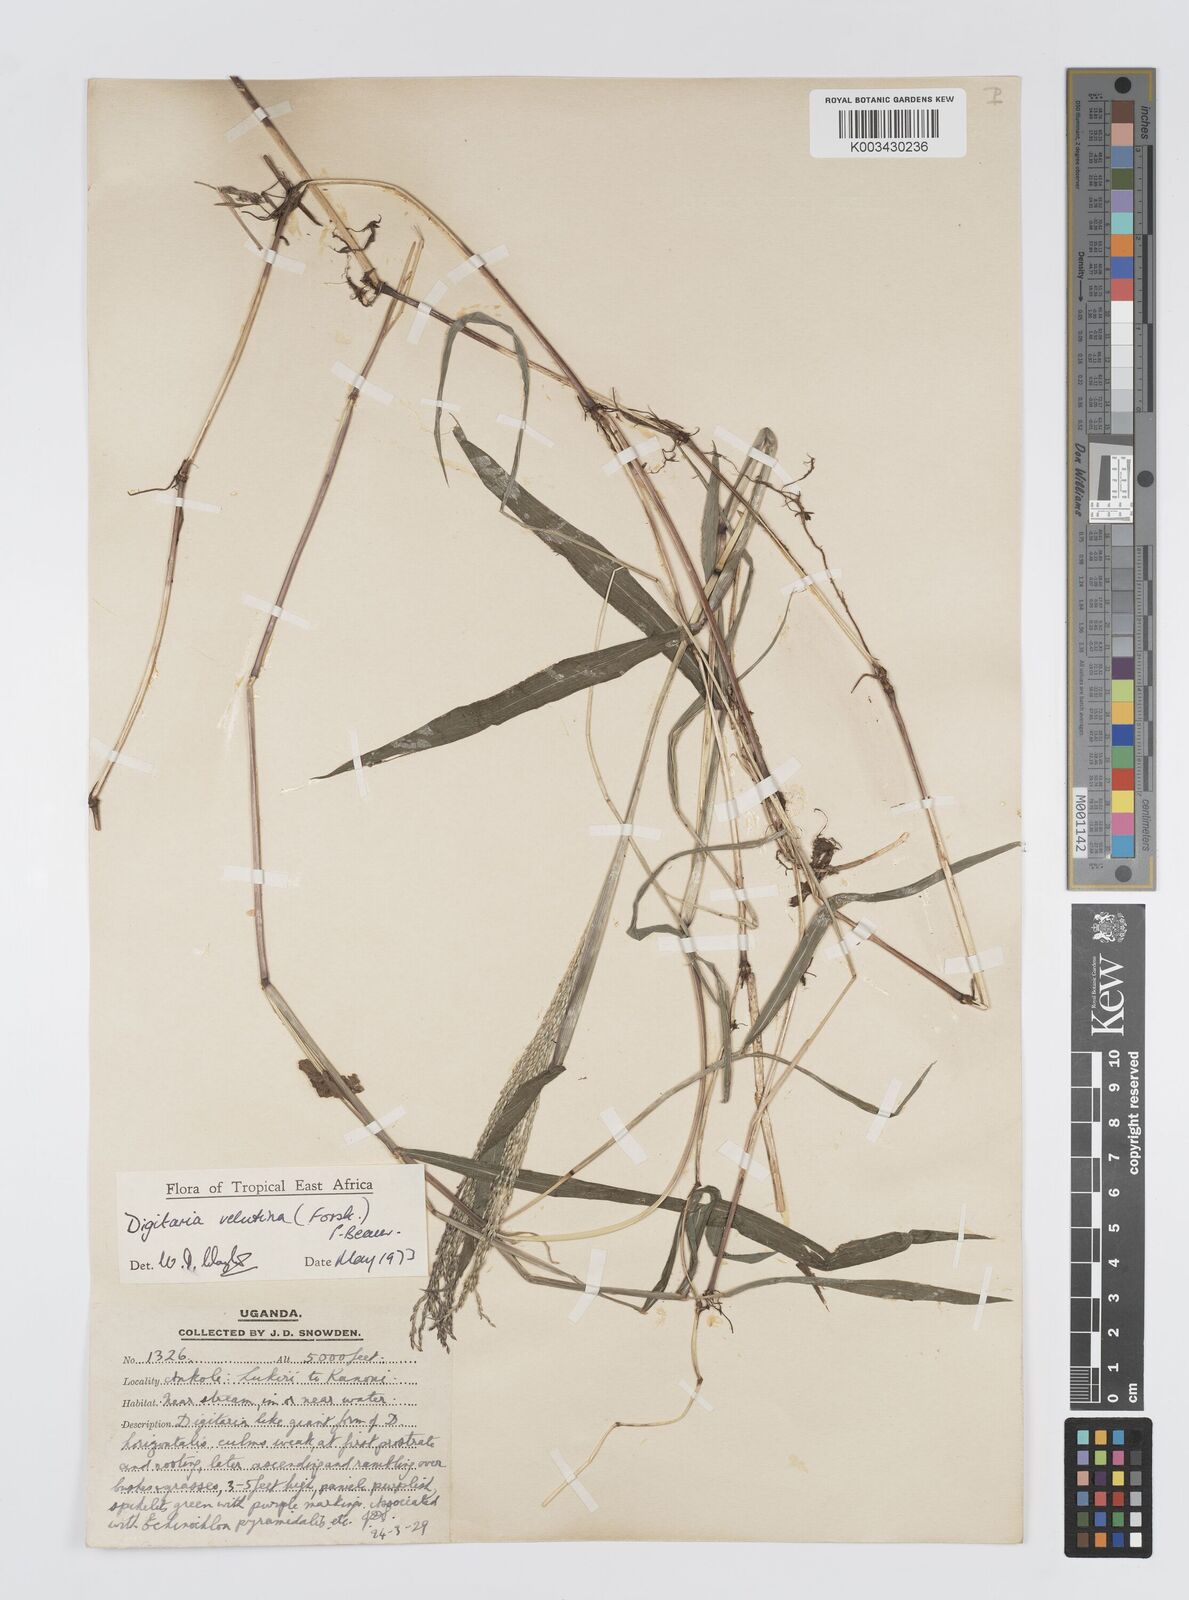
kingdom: Plantae
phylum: Tracheophyta
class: Liliopsida
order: Poales
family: Poaceae
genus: Digitaria
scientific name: Digitaria velutina
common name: Long-plume finger grass
